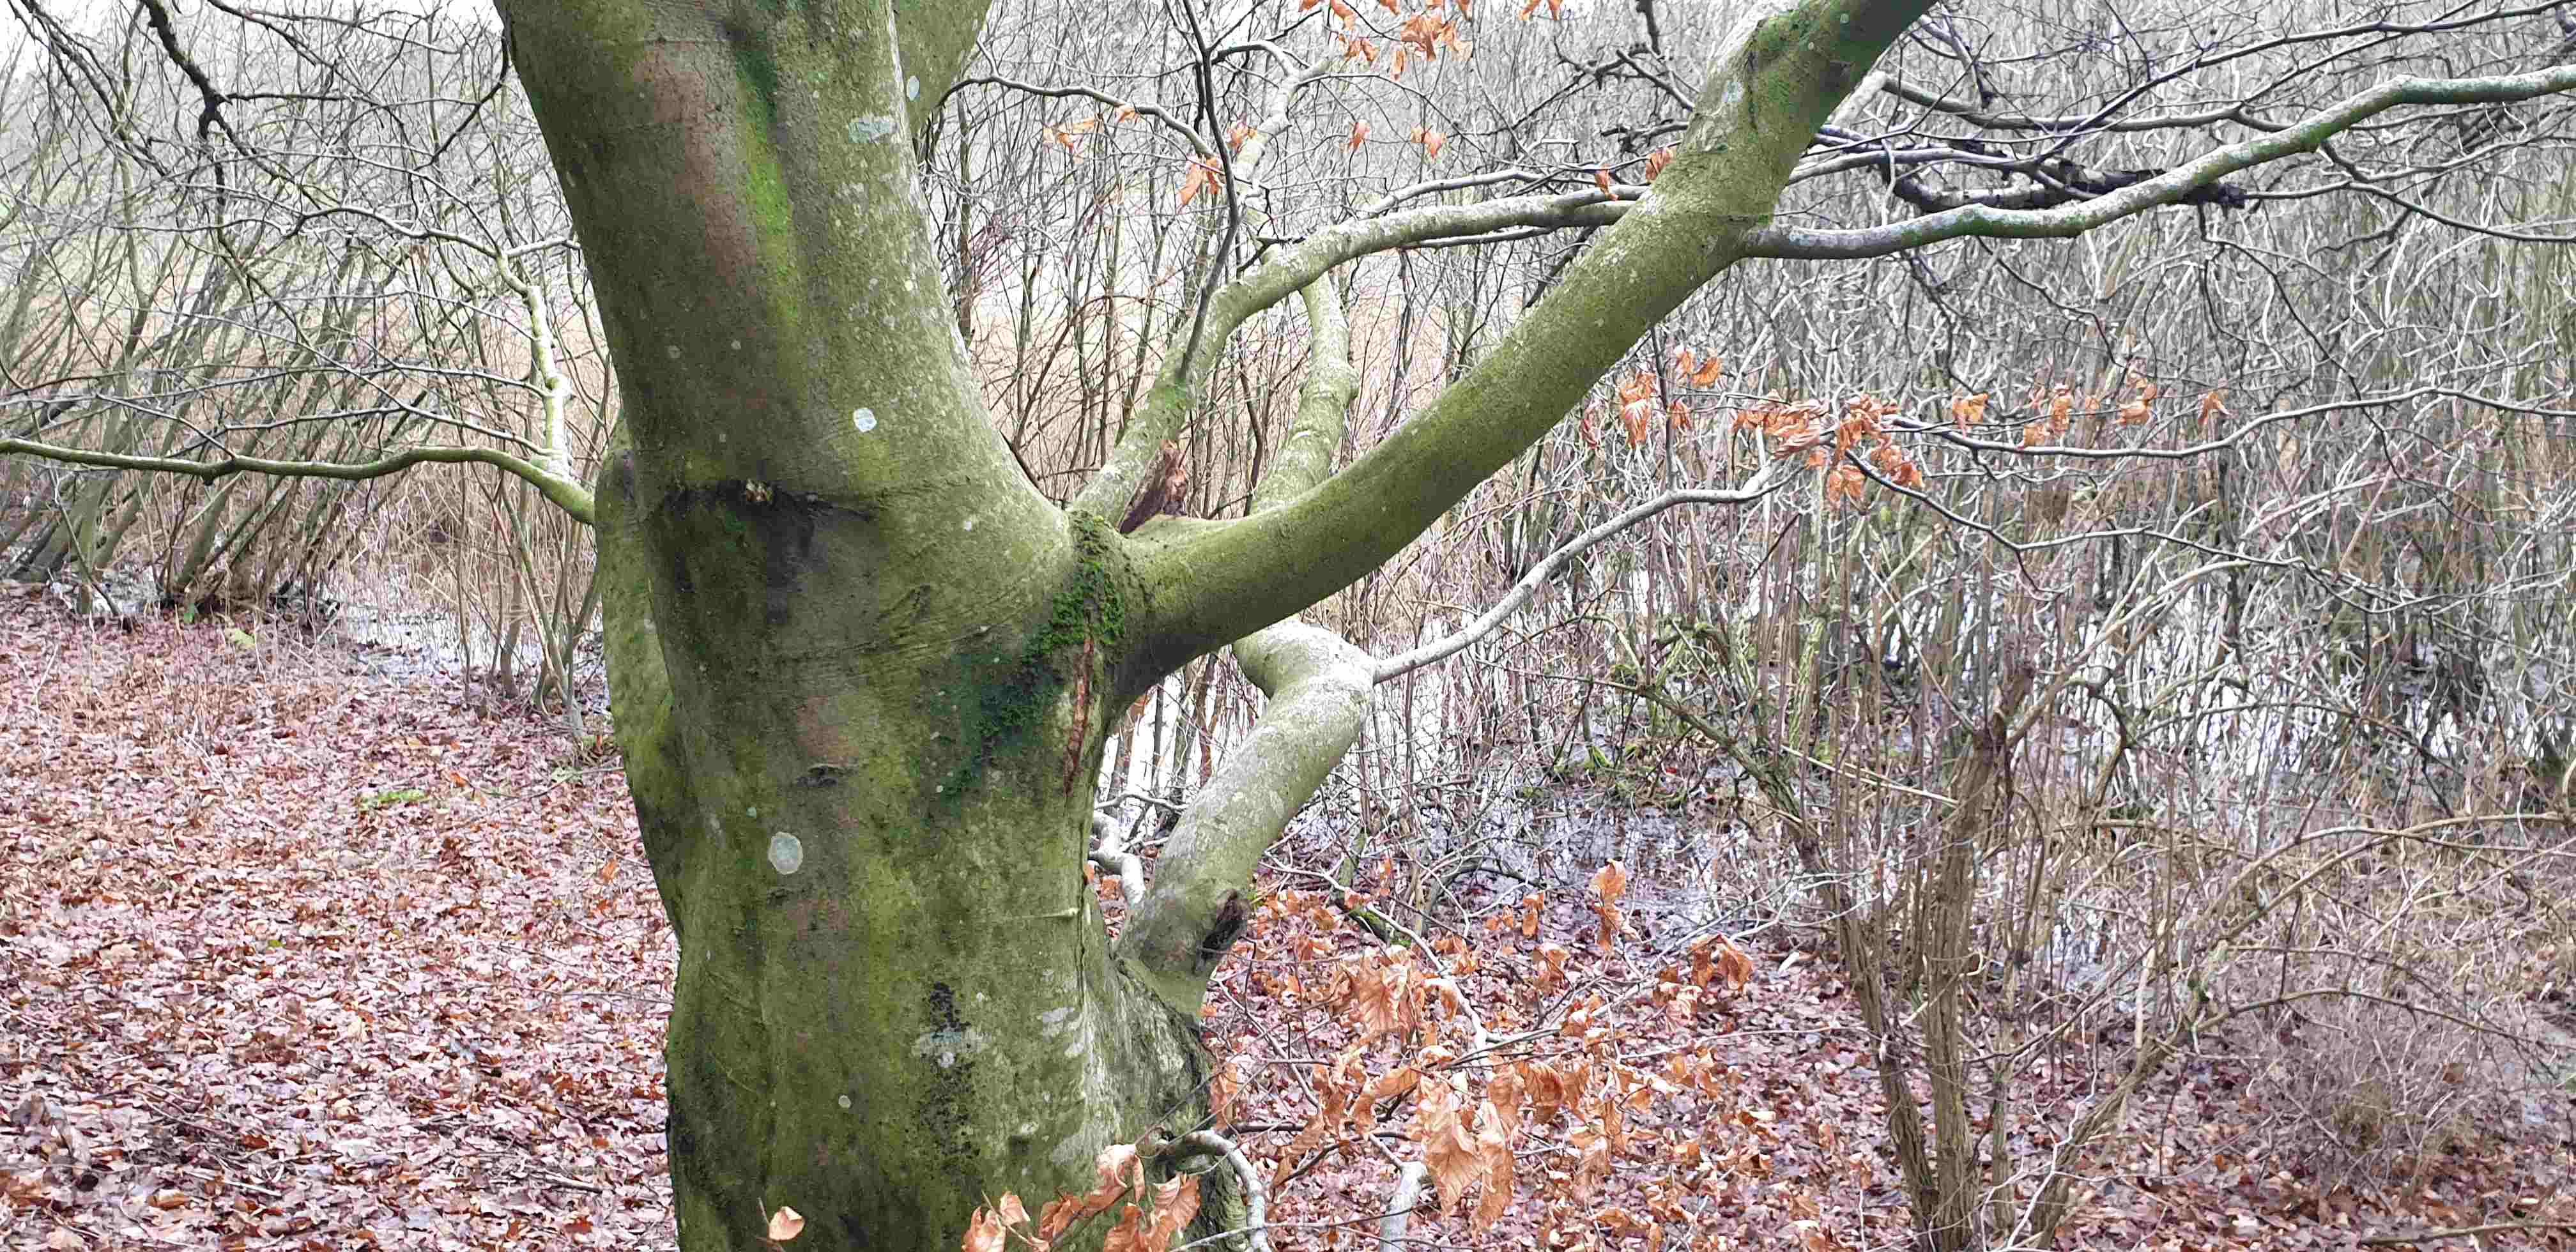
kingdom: Fungi
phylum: Ascomycota
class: Lecanoromycetes
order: Ostropales
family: Phlyctidaceae
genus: Phlyctis
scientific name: Phlyctis argena
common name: almindelig sølvlav
